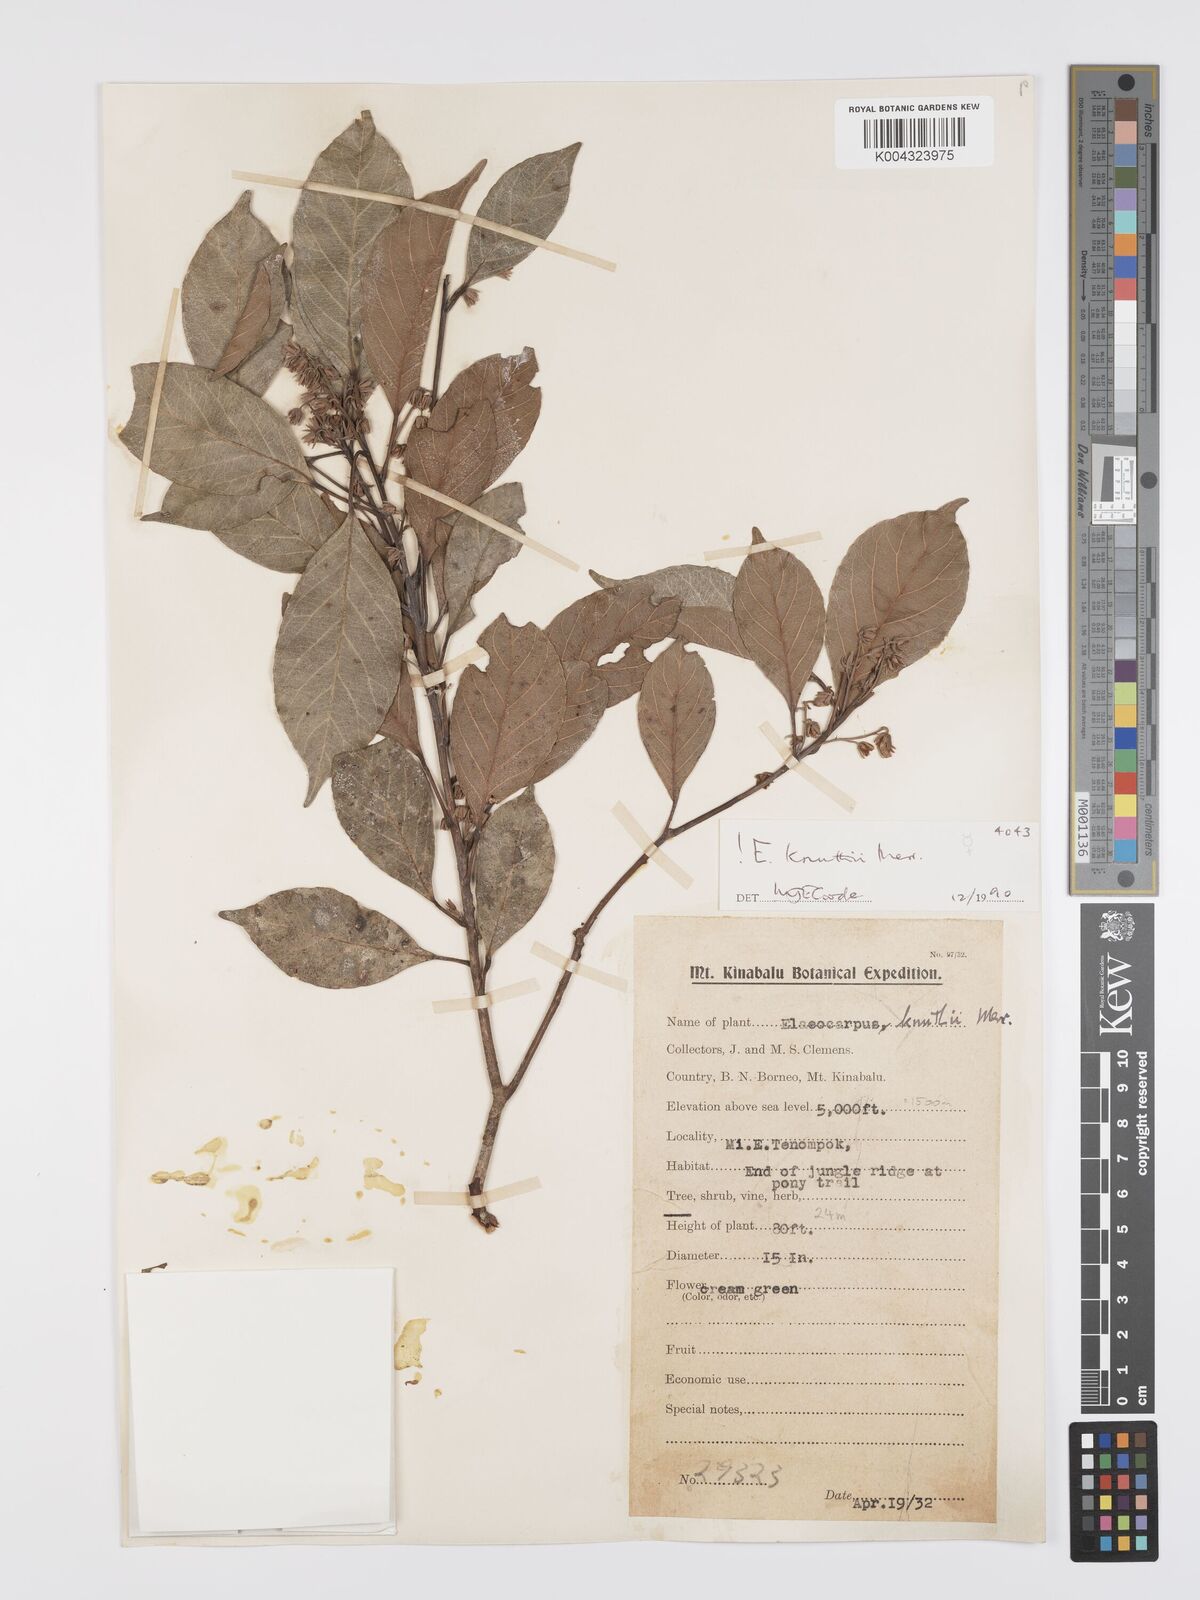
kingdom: Plantae
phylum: Tracheophyta
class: Magnoliopsida
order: Oxalidales
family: Elaeocarpaceae
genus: Elaeocarpus
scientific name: Elaeocarpus knuthii
